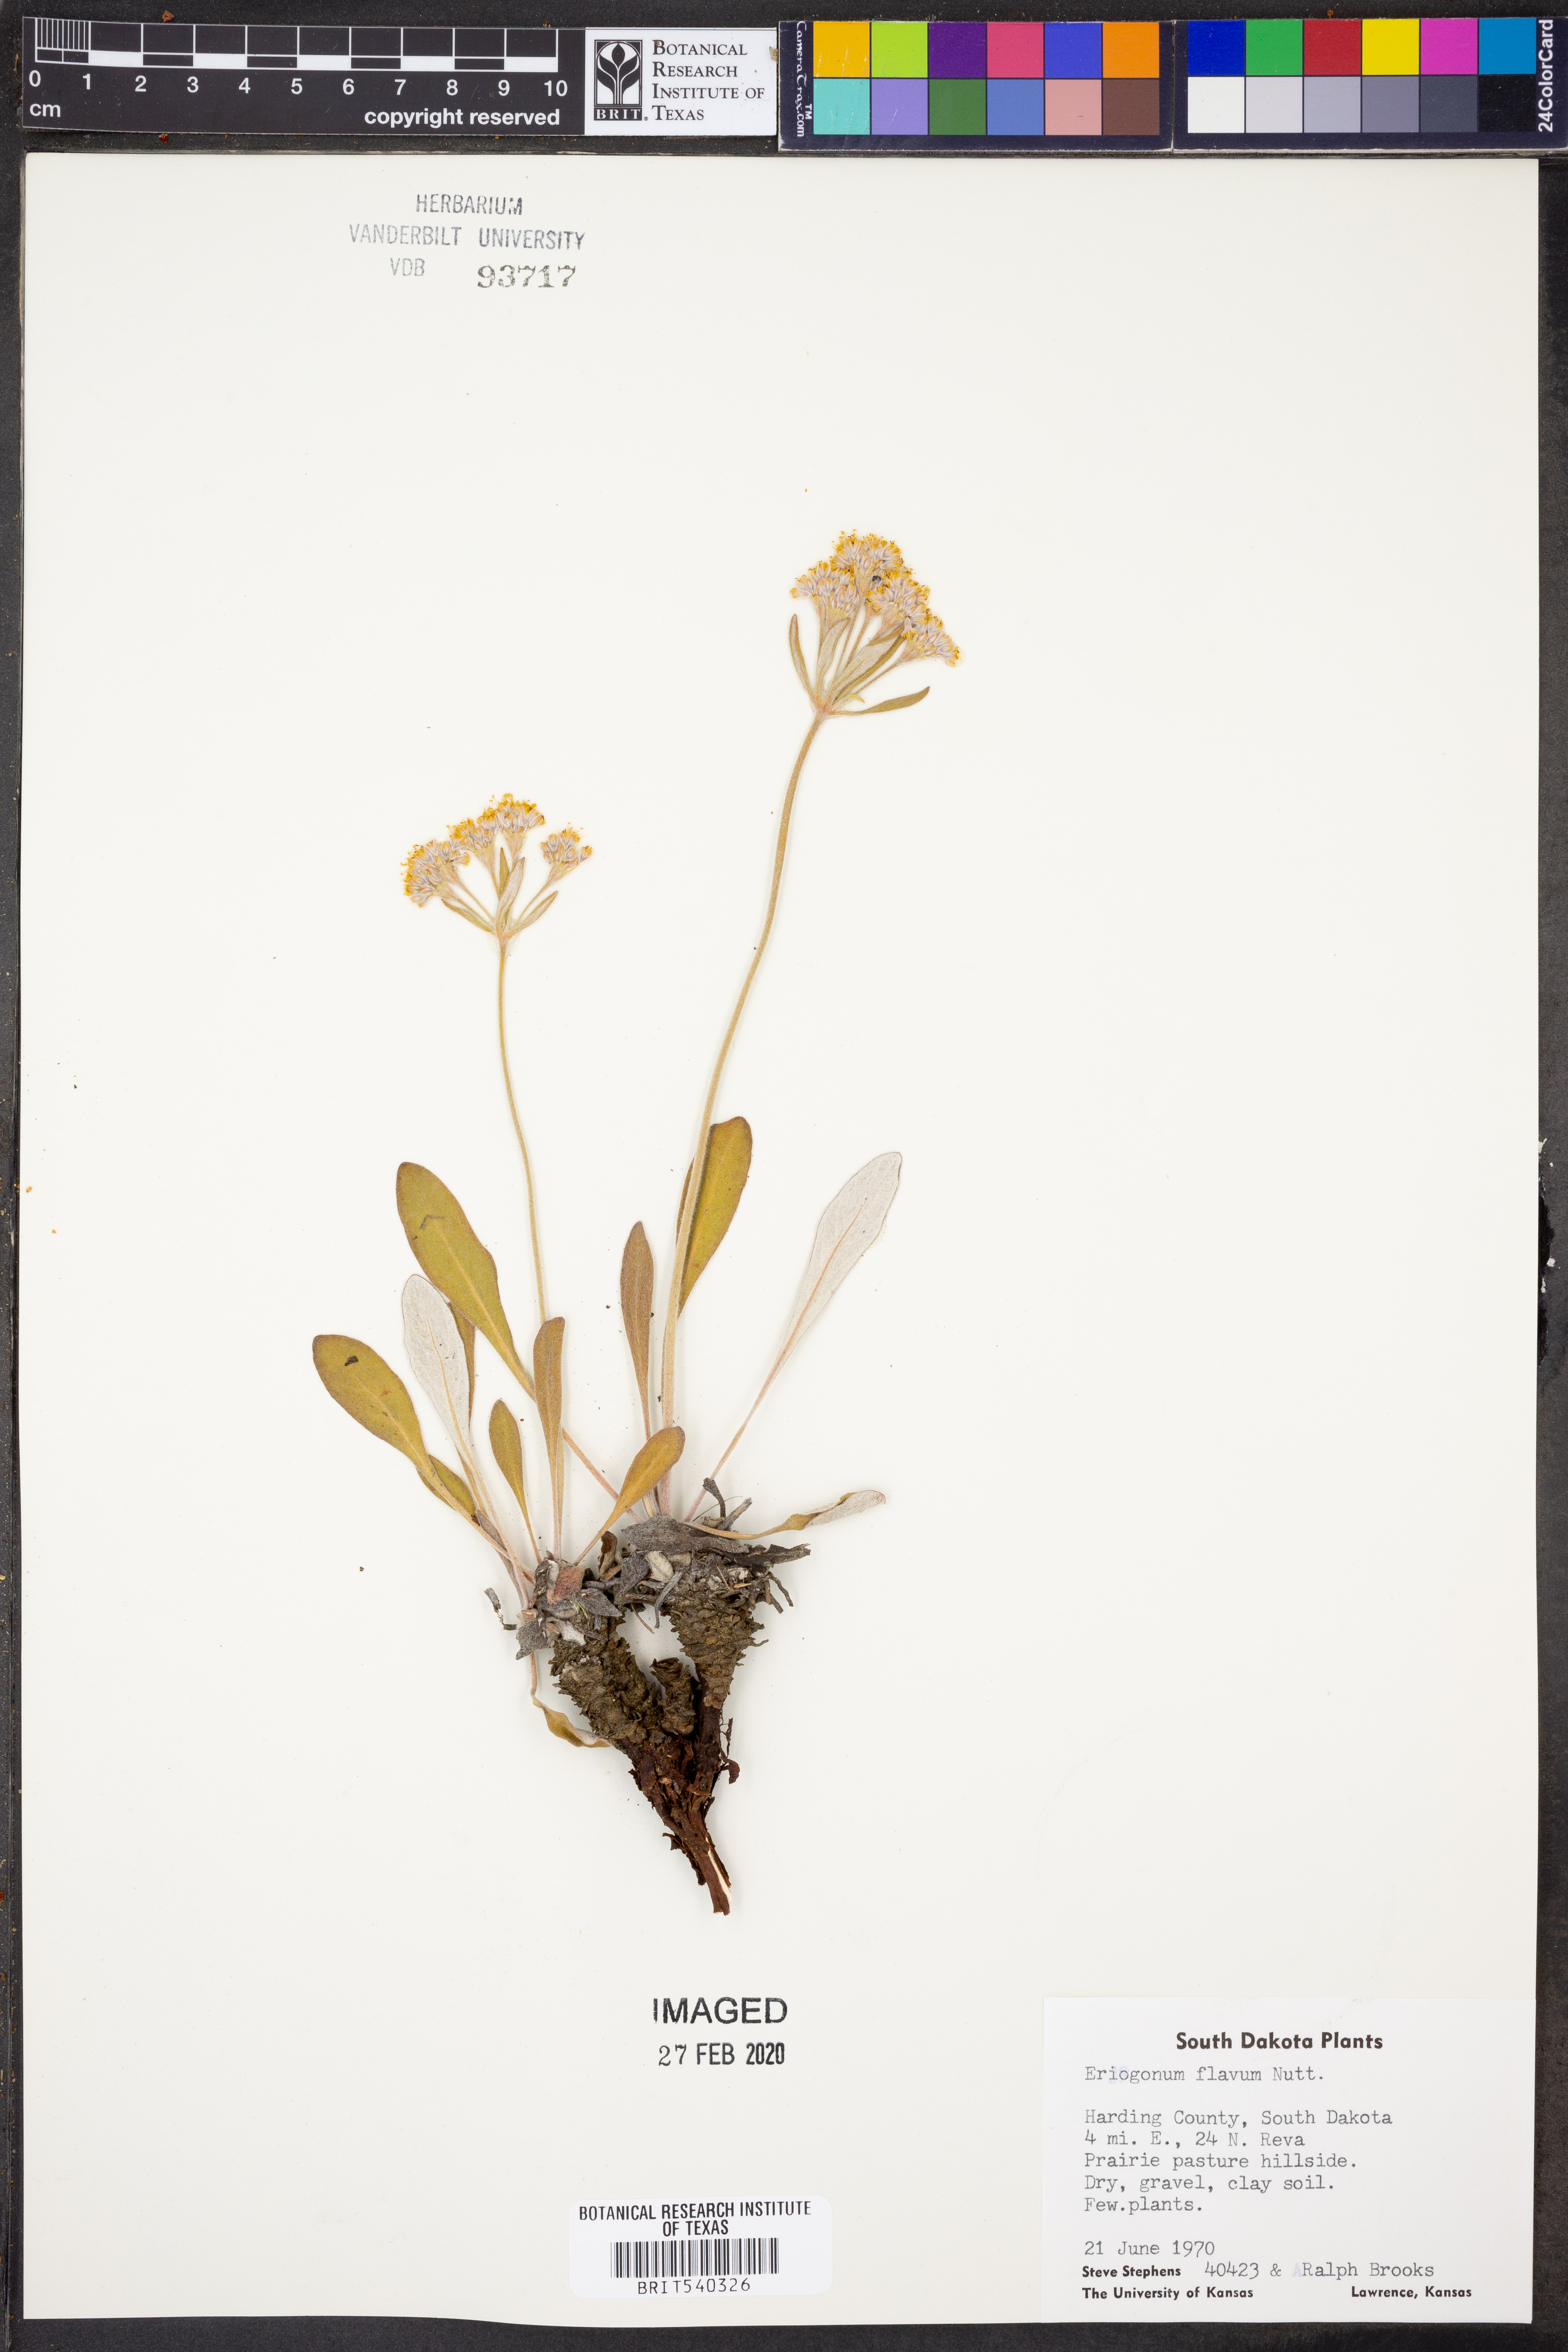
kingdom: Plantae
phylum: Tracheophyta
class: Magnoliopsida
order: Caryophyllales
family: Polygonaceae
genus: Eriogonum
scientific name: Eriogonum flavum
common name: Alpine golden wild buckwheat
